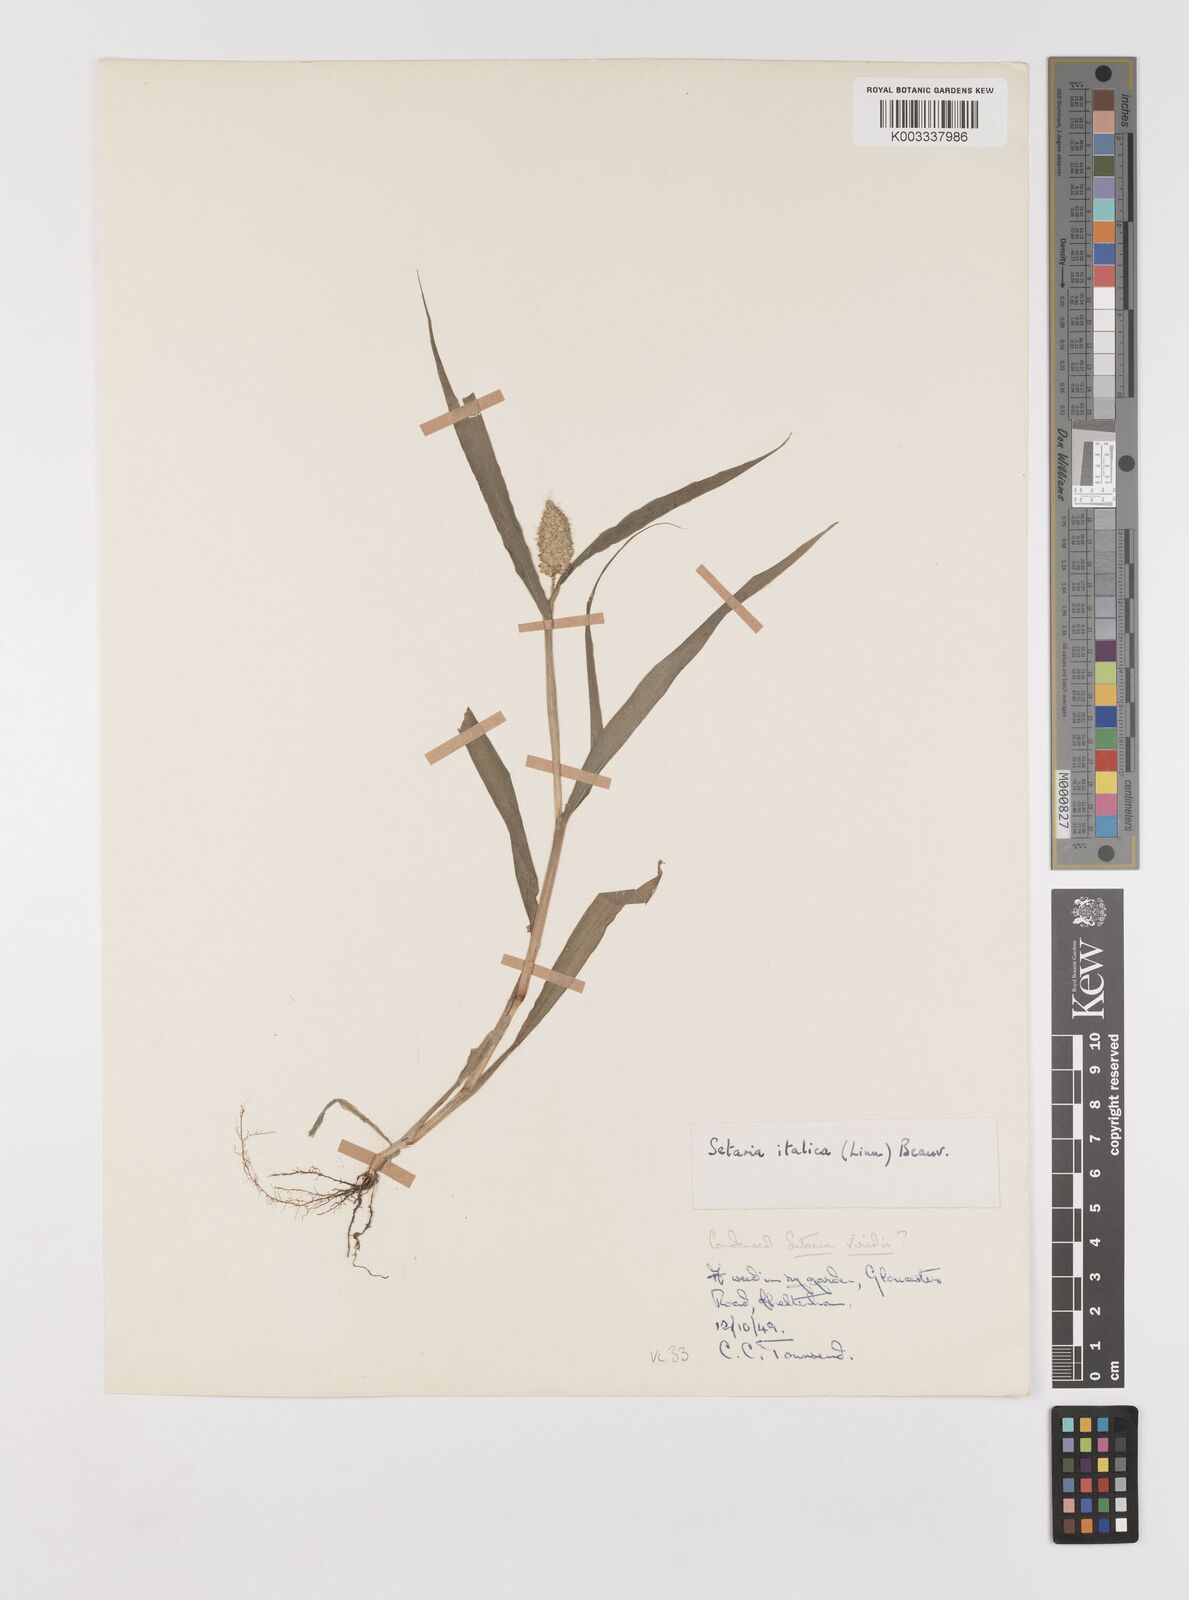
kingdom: Plantae
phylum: Tracheophyta
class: Liliopsida
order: Poales
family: Poaceae
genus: Setaria
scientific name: Setaria italica
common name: Foxtail bristle-grass
